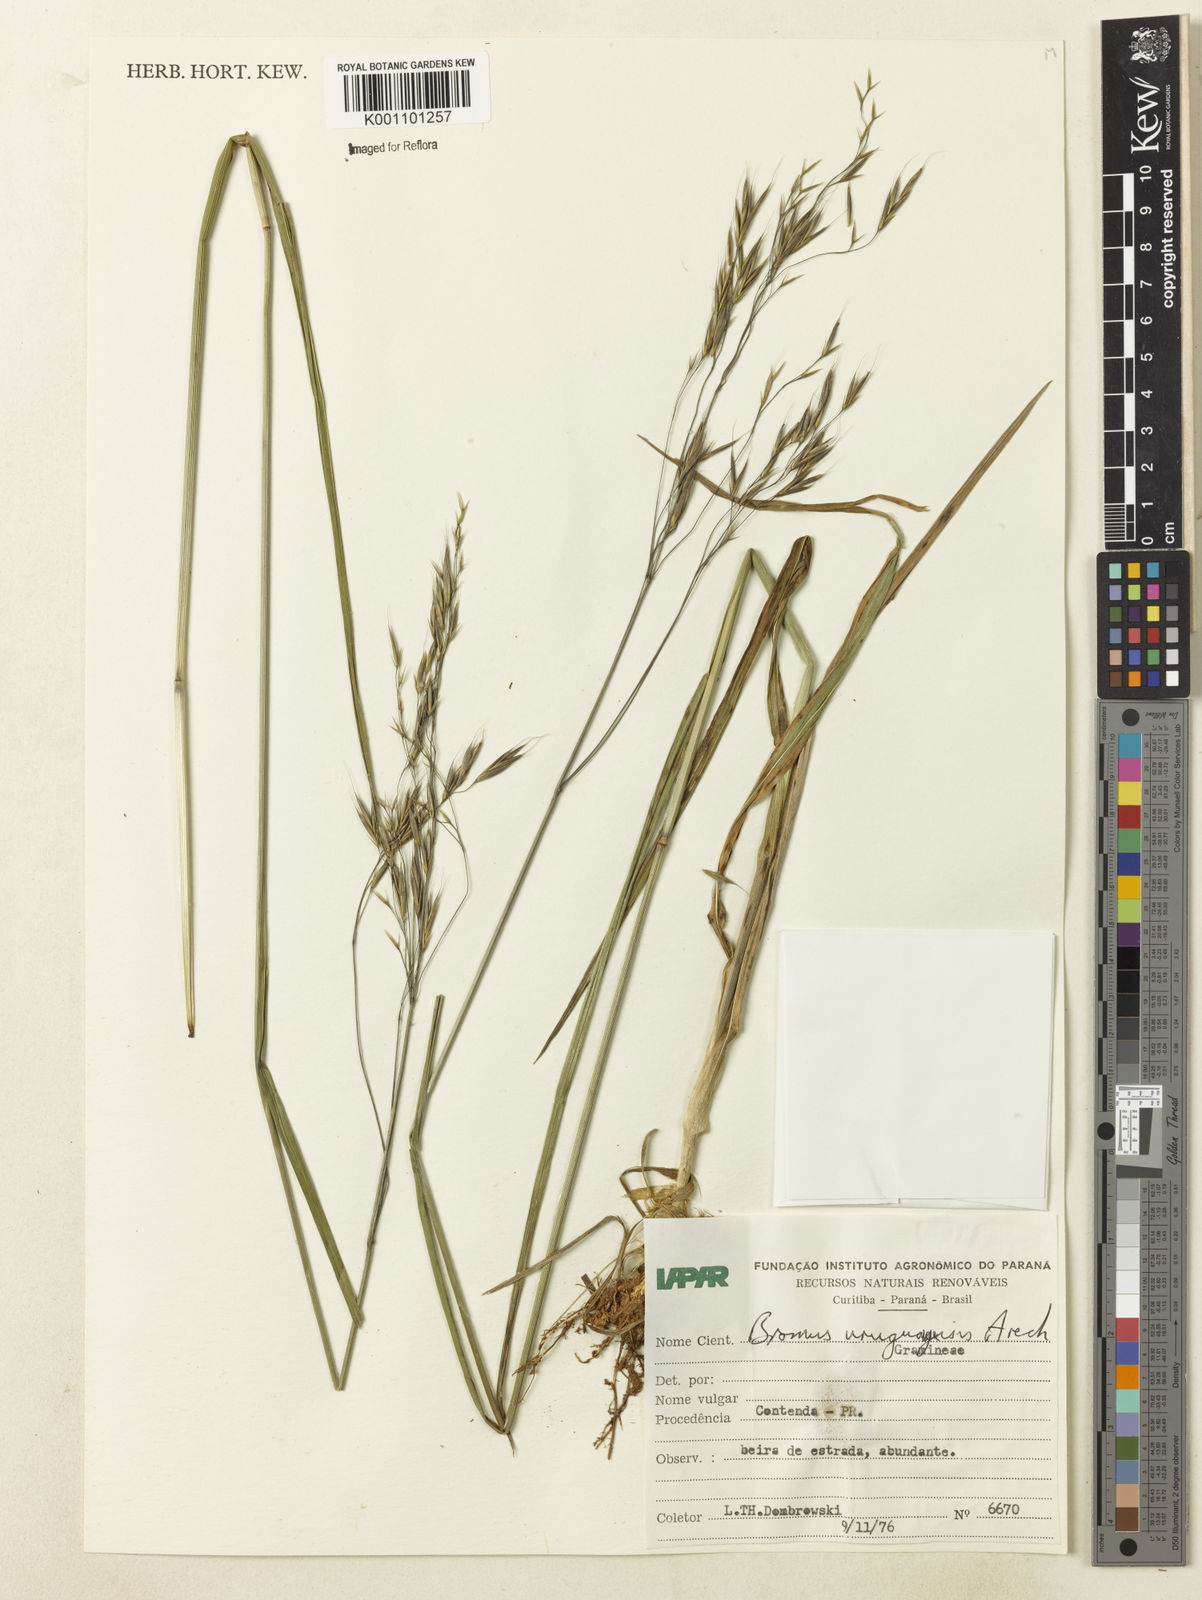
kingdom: Plantae
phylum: Tracheophyta
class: Liliopsida
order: Poales
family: Poaceae
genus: Bromus
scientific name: Bromus
